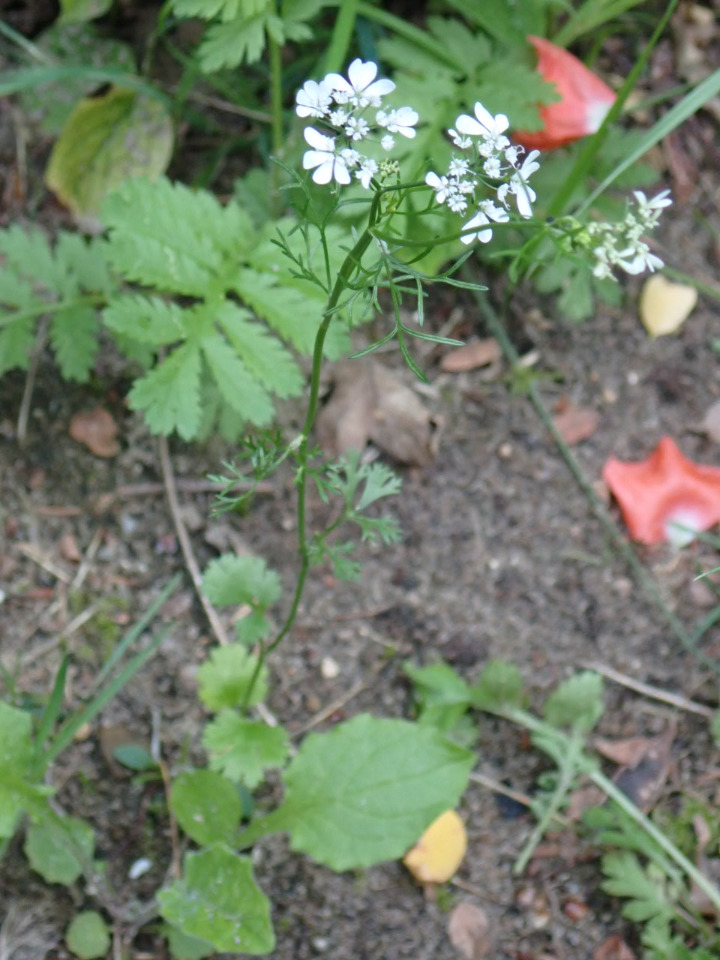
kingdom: Plantae
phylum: Tracheophyta
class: Magnoliopsida
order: Apiales
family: Apiaceae
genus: Coriandrum
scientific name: Coriandrum sativum
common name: Koriander
